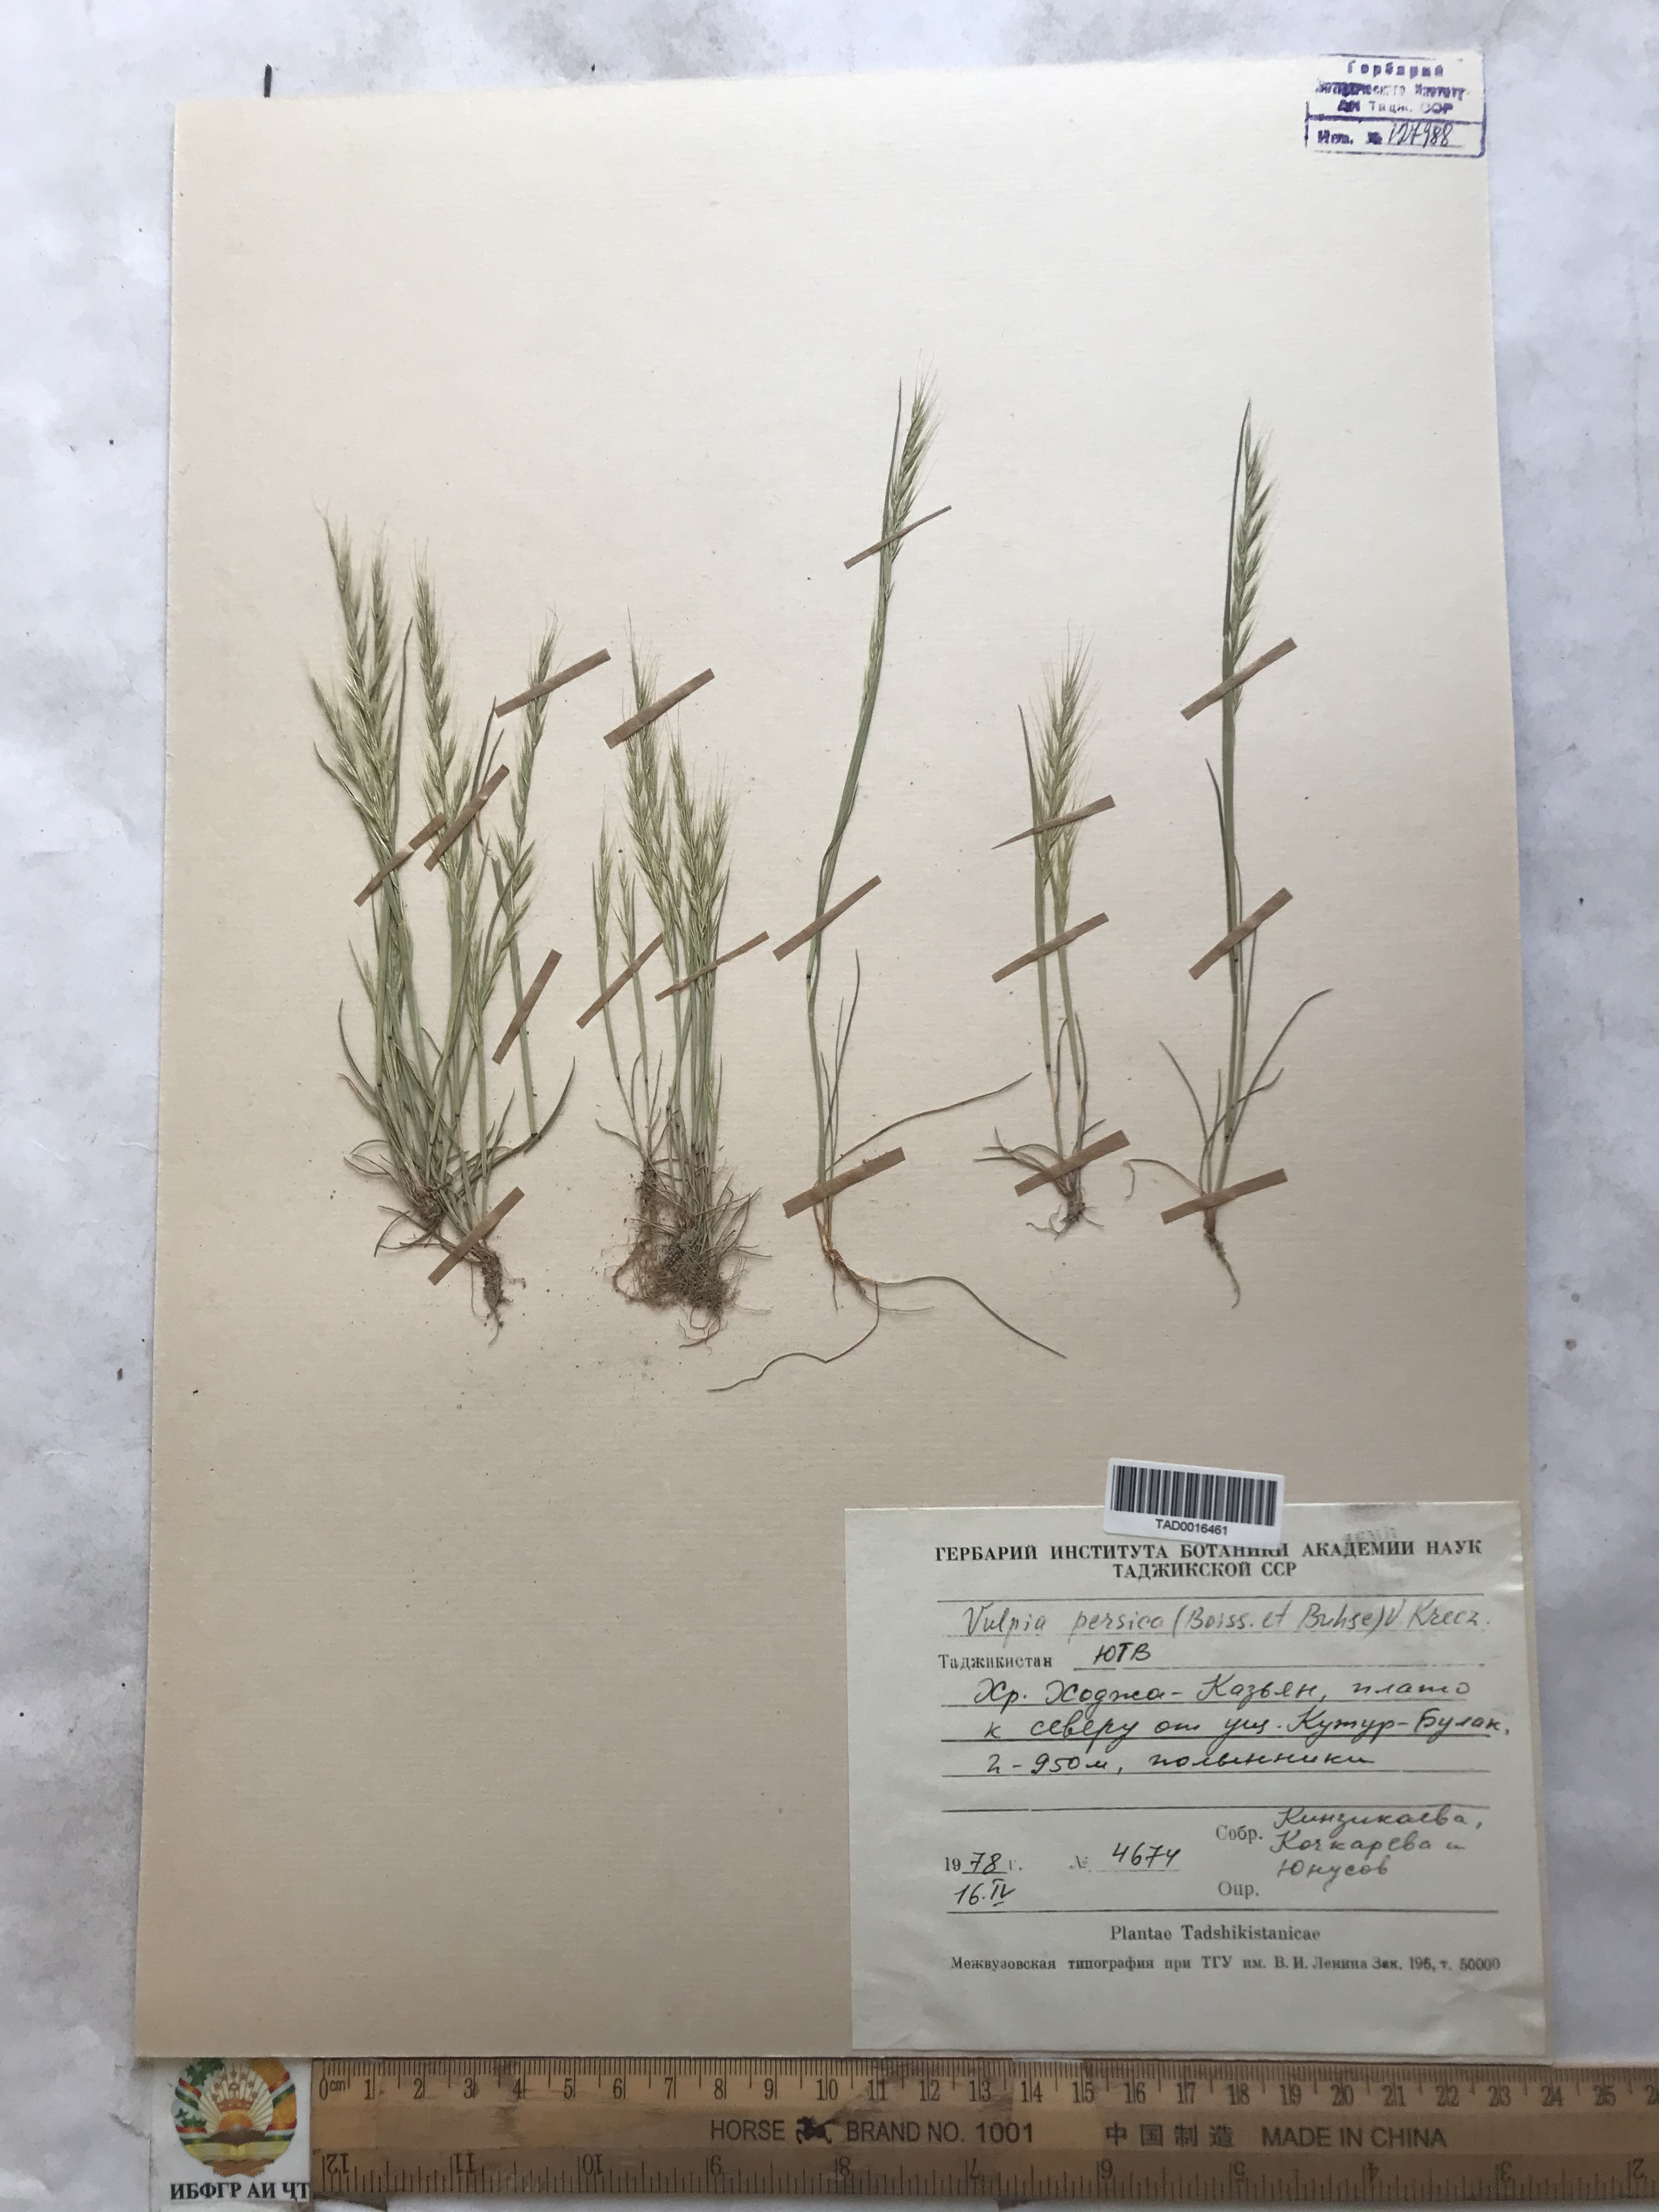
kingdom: Plantae
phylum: Tracheophyta
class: Liliopsida
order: Poales
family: Poaceae
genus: Festuca
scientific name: Festuca Vulpia persica
